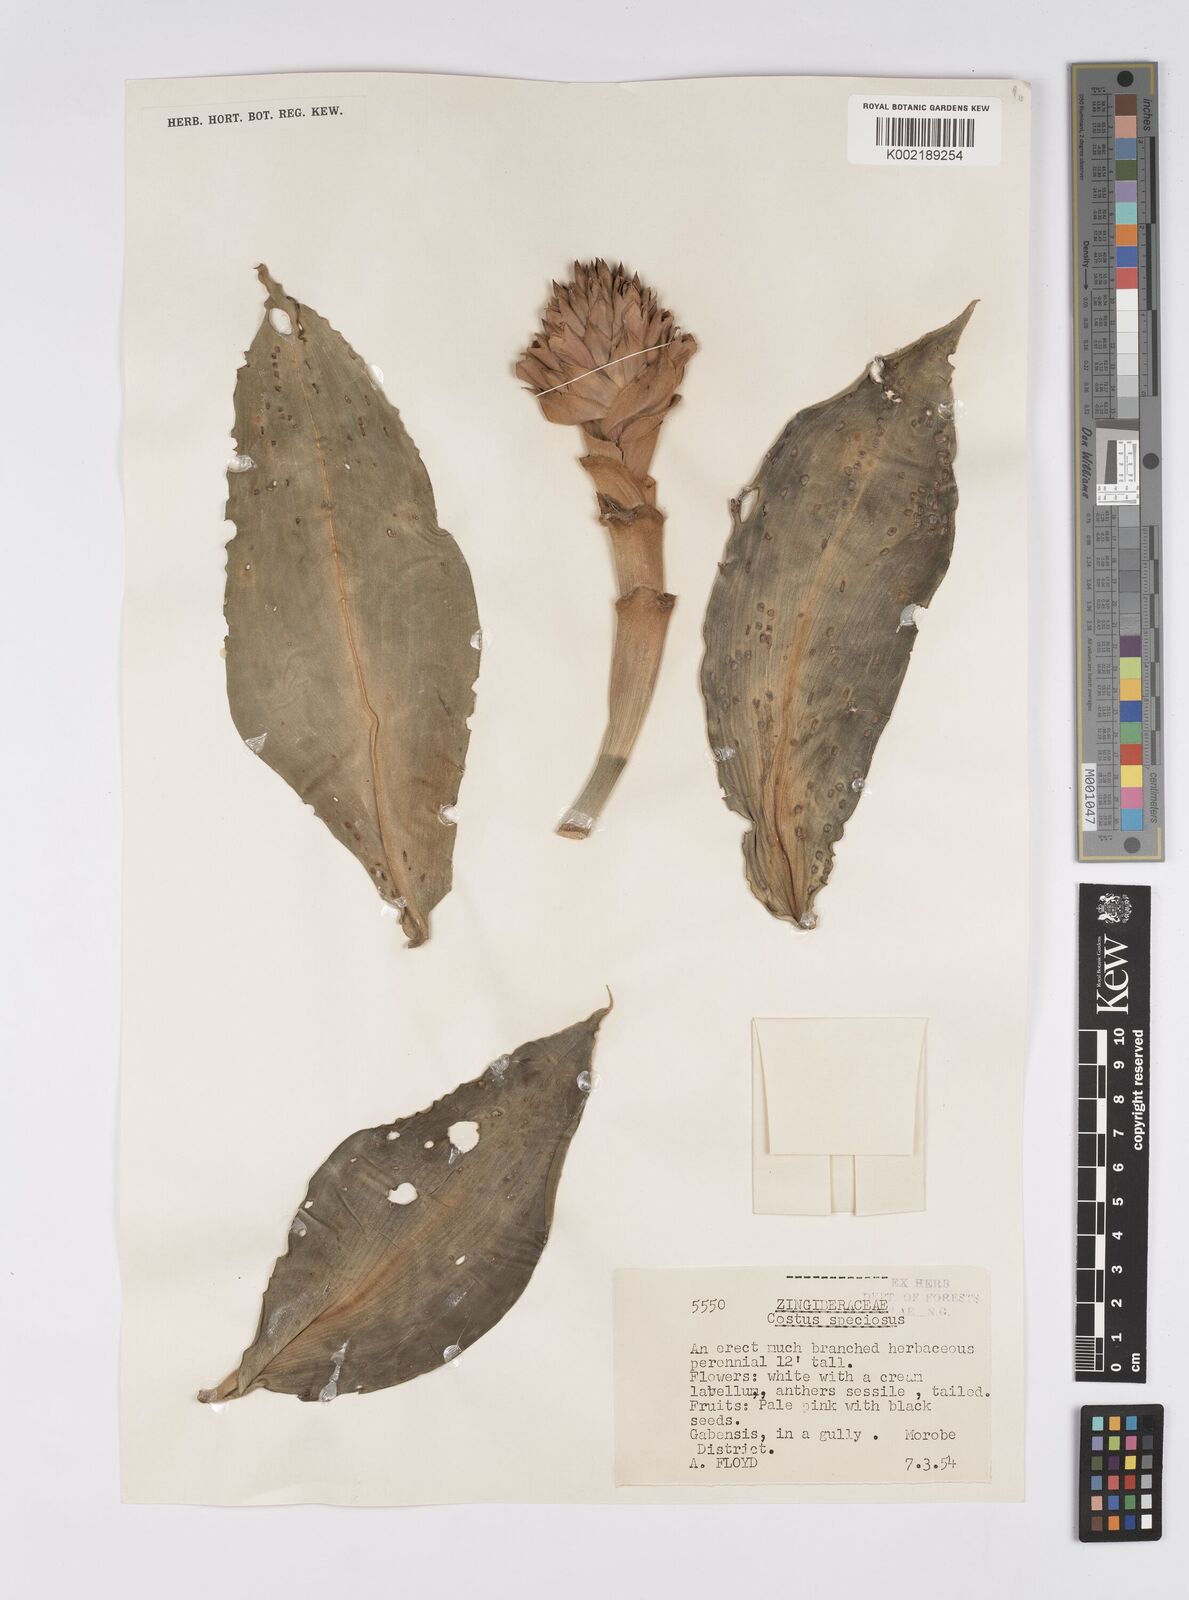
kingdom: Plantae
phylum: Tracheophyta
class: Liliopsida
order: Zingiberales
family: Costaceae
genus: Hellenia
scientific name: Hellenia speciosa
